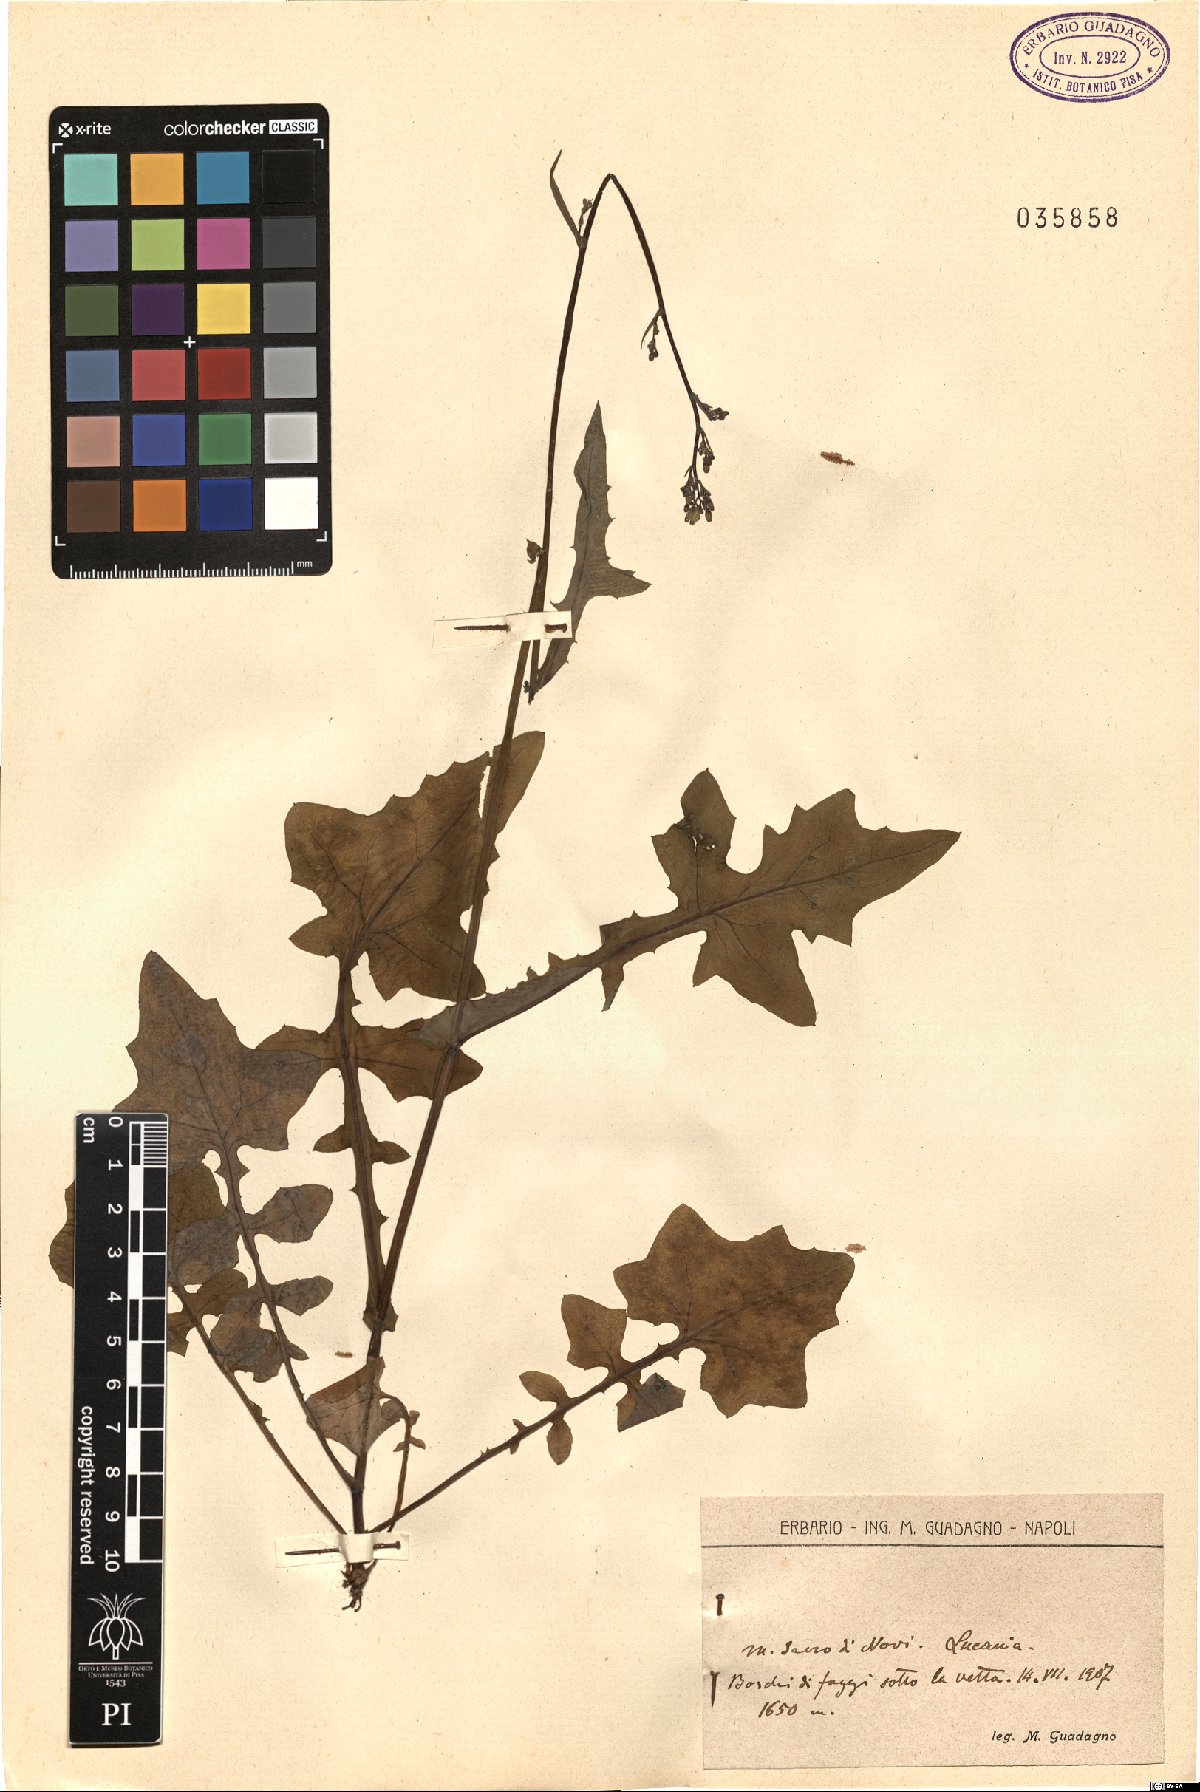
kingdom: Plantae
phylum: Tracheophyta
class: Magnoliopsida
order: Asterales
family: Asteraceae
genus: Lactuca
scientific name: Lactuca
